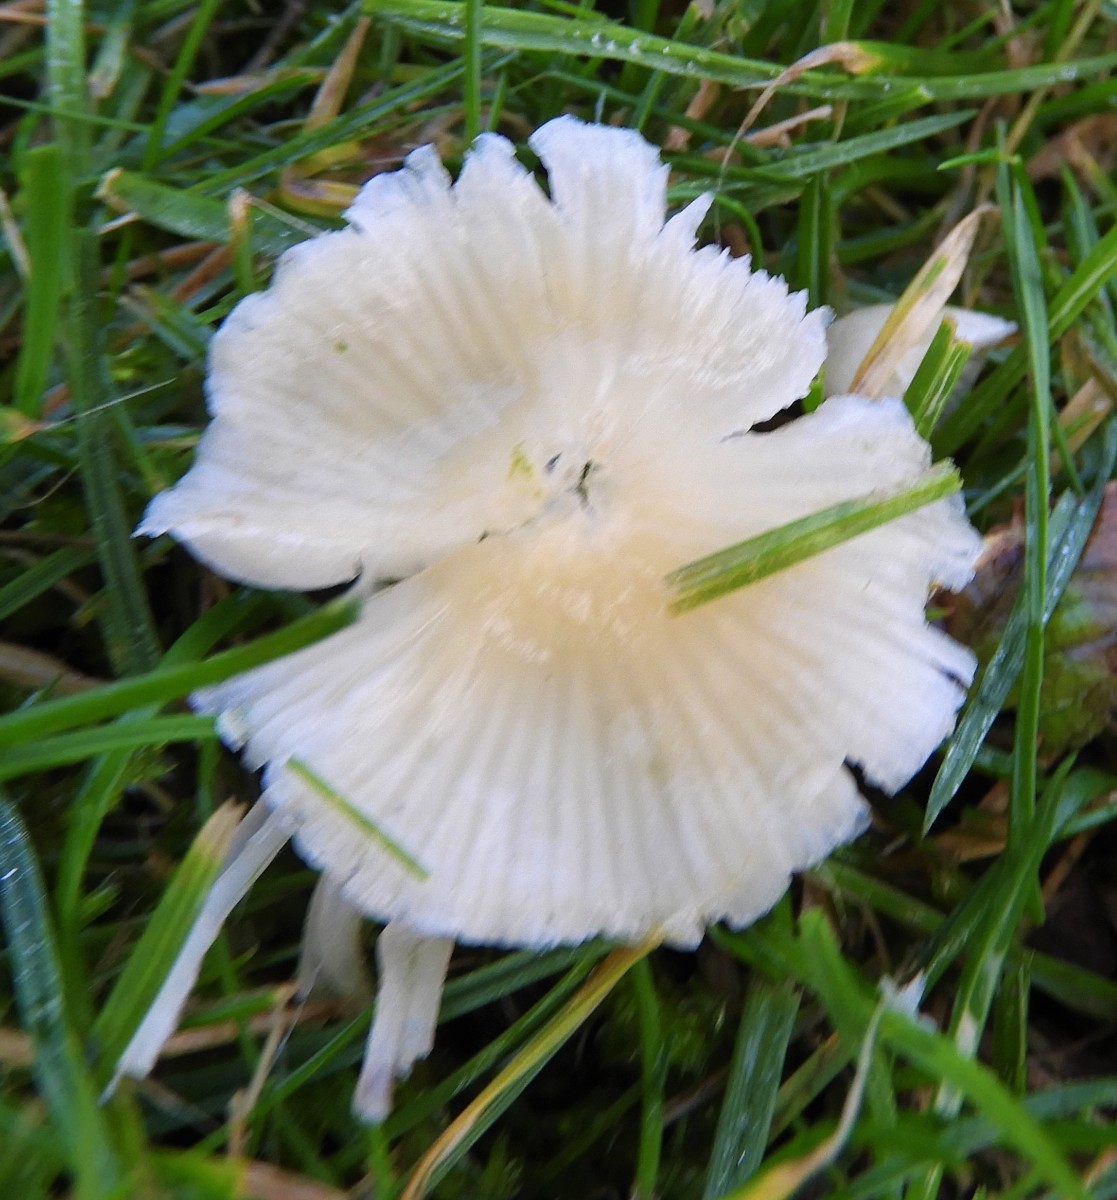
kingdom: Fungi
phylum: Basidiomycota
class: Agaricomycetes
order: Agaricales
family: Mycenaceae
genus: Atheniella
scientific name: Atheniella flavoalba
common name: gulhvid huesvamp
